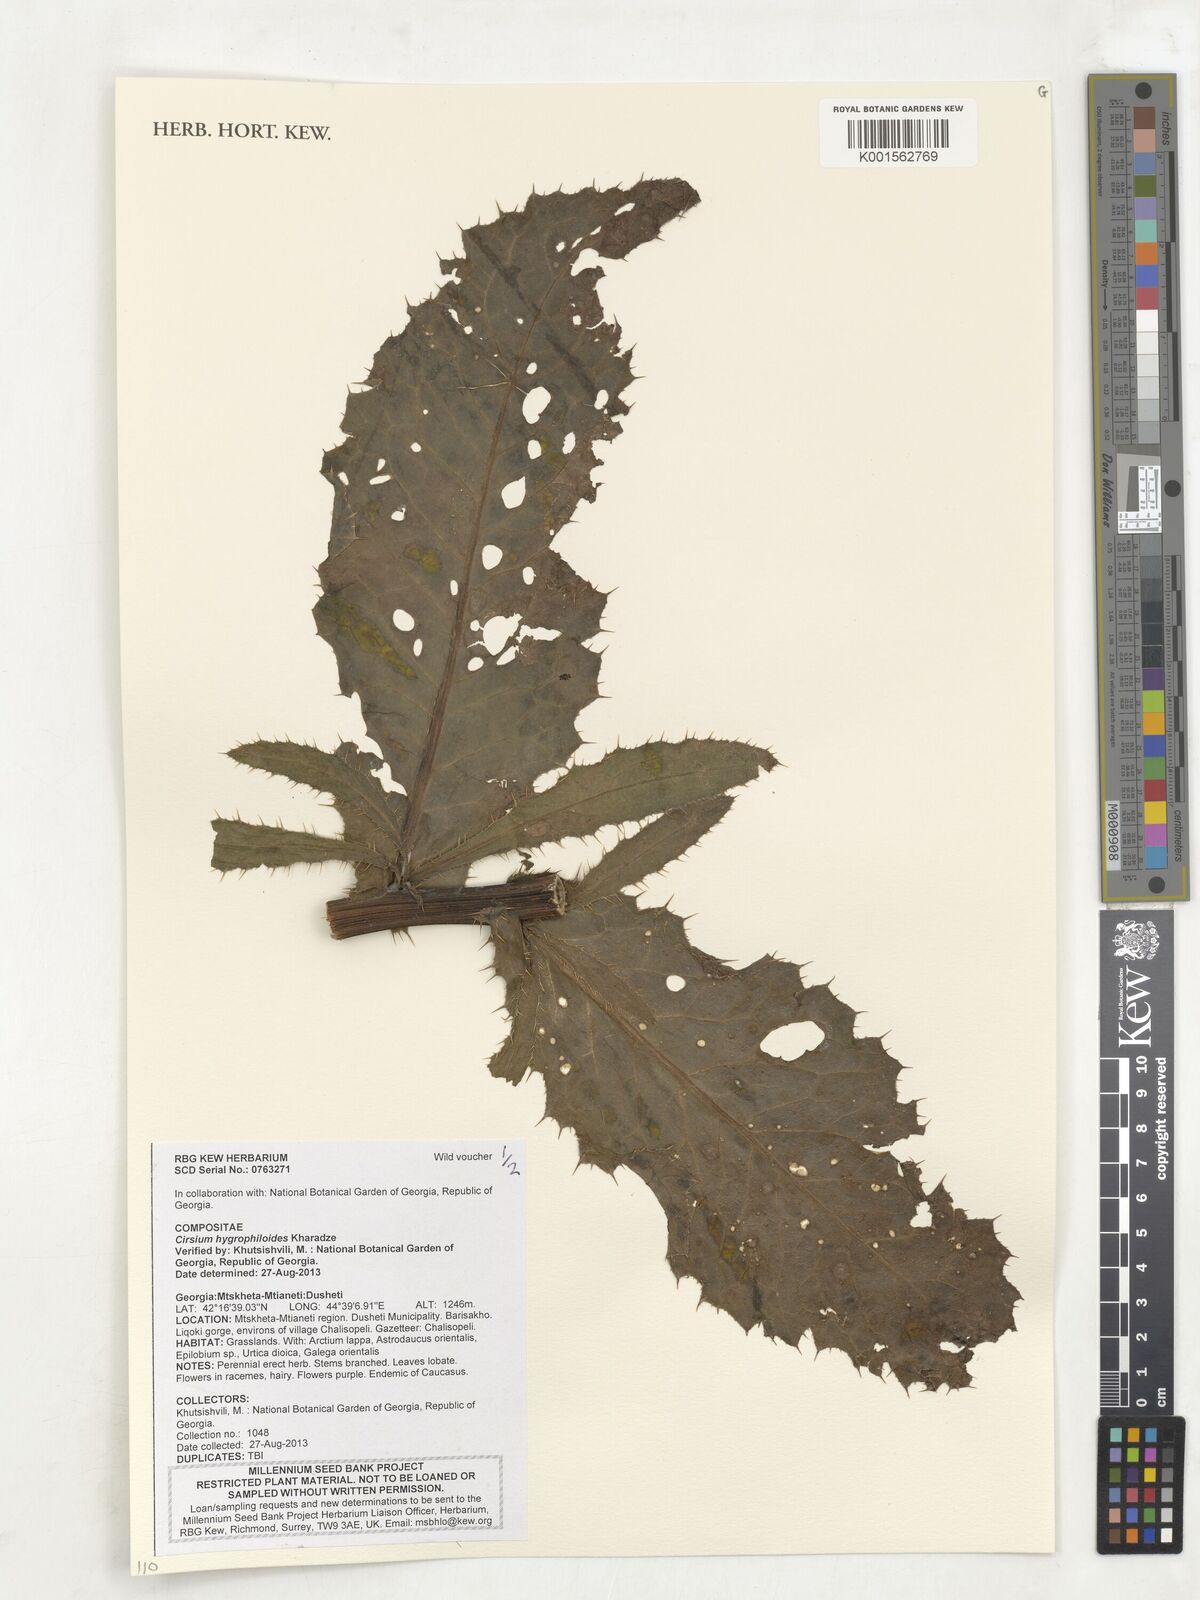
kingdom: Plantae
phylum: Tracheophyta
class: Magnoliopsida
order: Asterales
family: Asteraceae
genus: Cirsium
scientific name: Cirsium pubigerum
